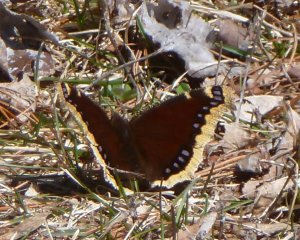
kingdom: Animalia
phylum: Arthropoda
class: Insecta
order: Lepidoptera
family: Nymphalidae
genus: Nymphalis
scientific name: Nymphalis antiopa
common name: Mourning Cloak
